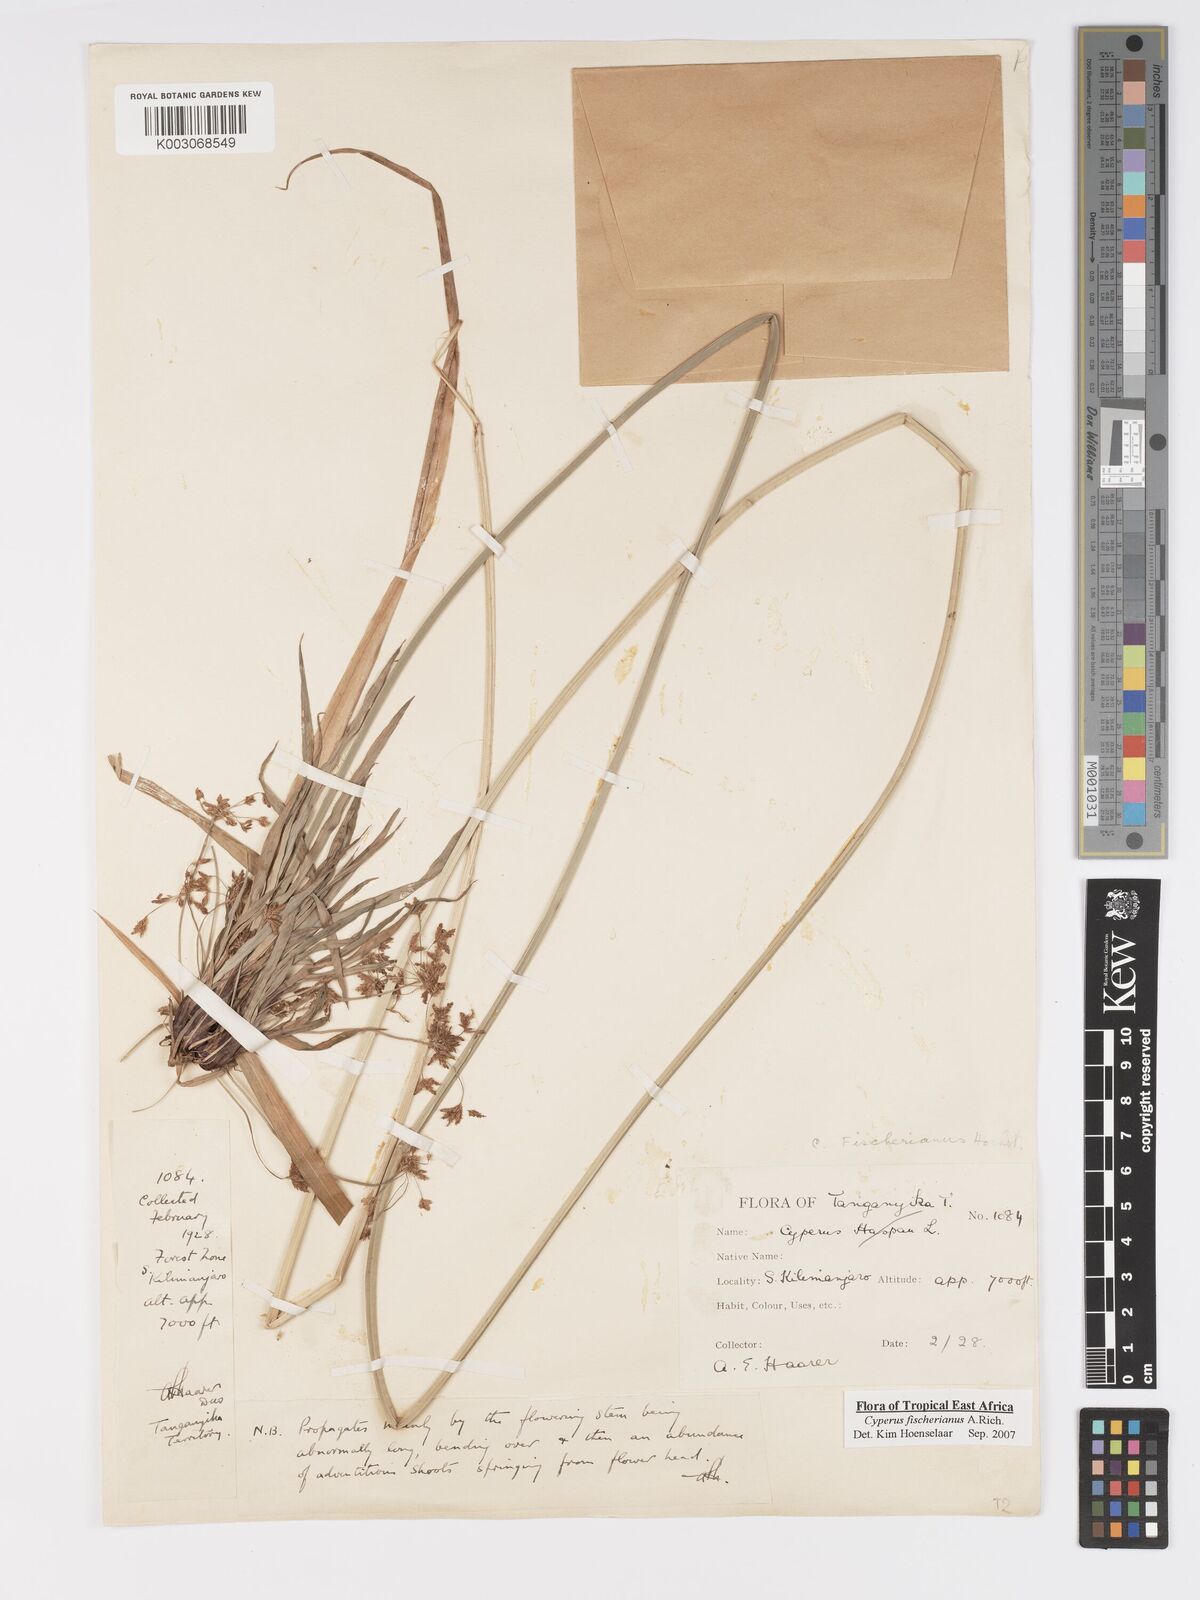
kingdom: Plantae
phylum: Tracheophyta
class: Liliopsida
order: Poales
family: Cyperaceae
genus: Cyperus
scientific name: Cyperus fischerianus
